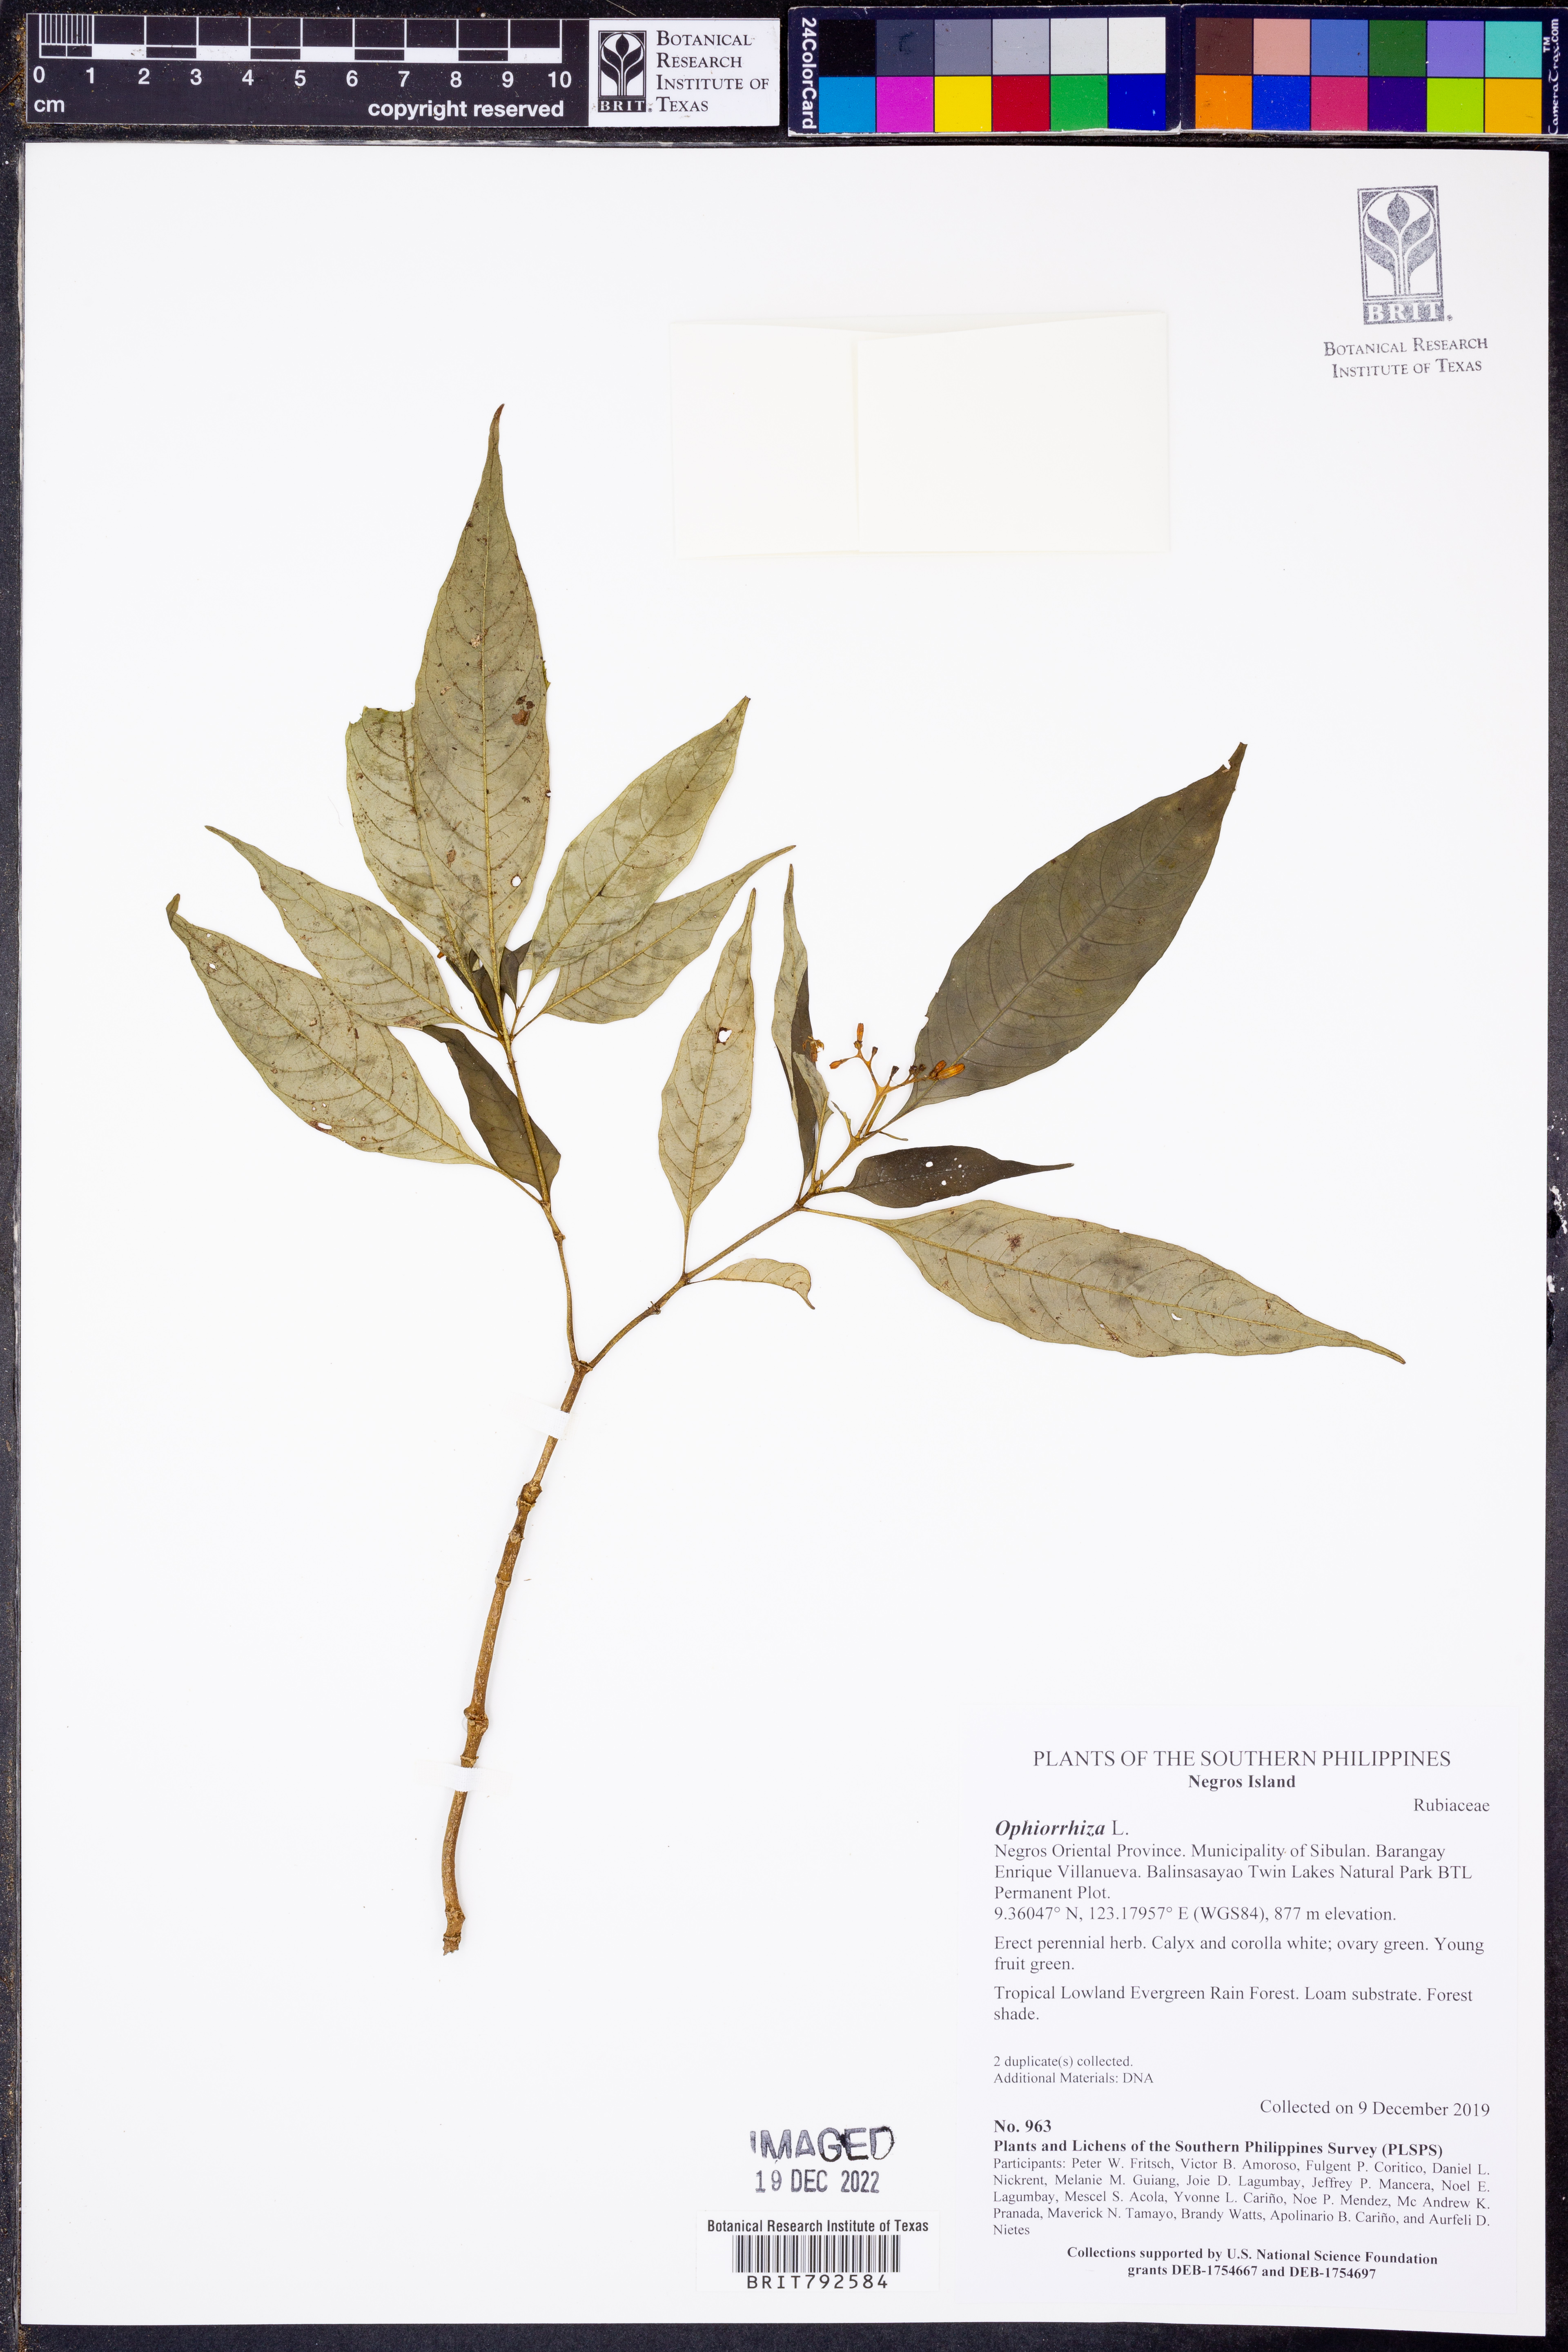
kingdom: Plantae
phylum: Tracheophyta
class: Magnoliopsida
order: Gentianales
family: Rubiaceae
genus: Ophiorrhiza
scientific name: Ophiorrhiza
